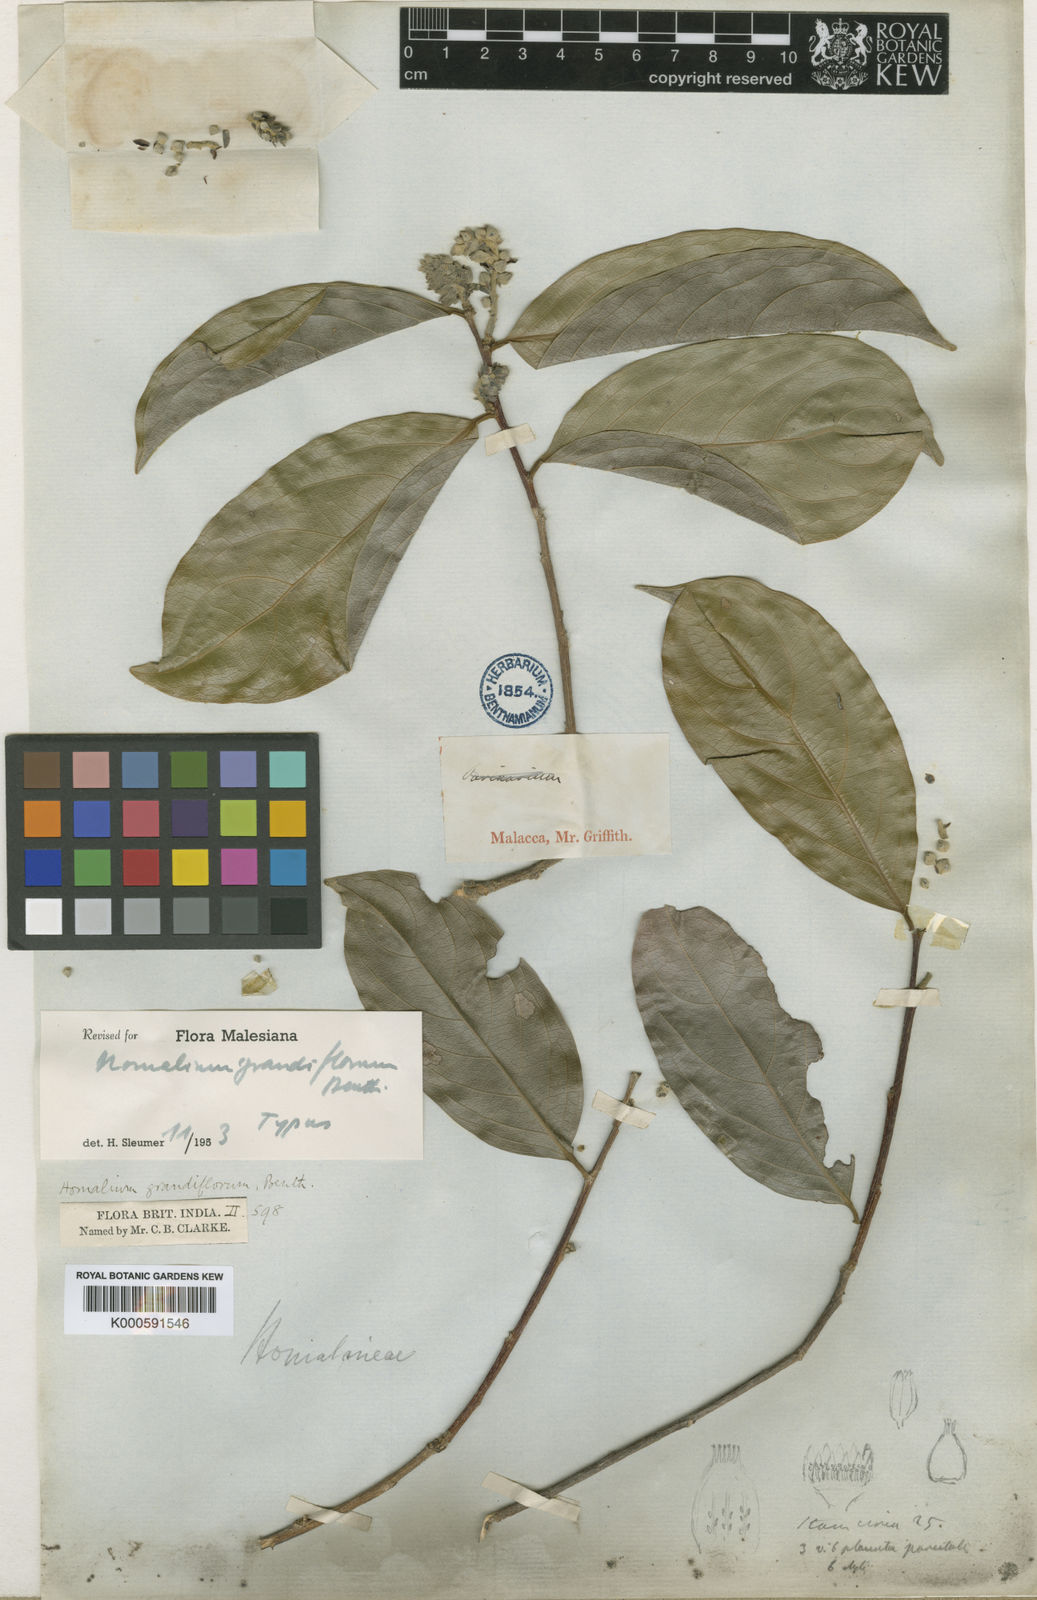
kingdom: Plantae
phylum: Tracheophyta
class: Magnoliopsida
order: Malpighiales
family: Salicaceae
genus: Homalium
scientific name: Homalium grandiflorum
